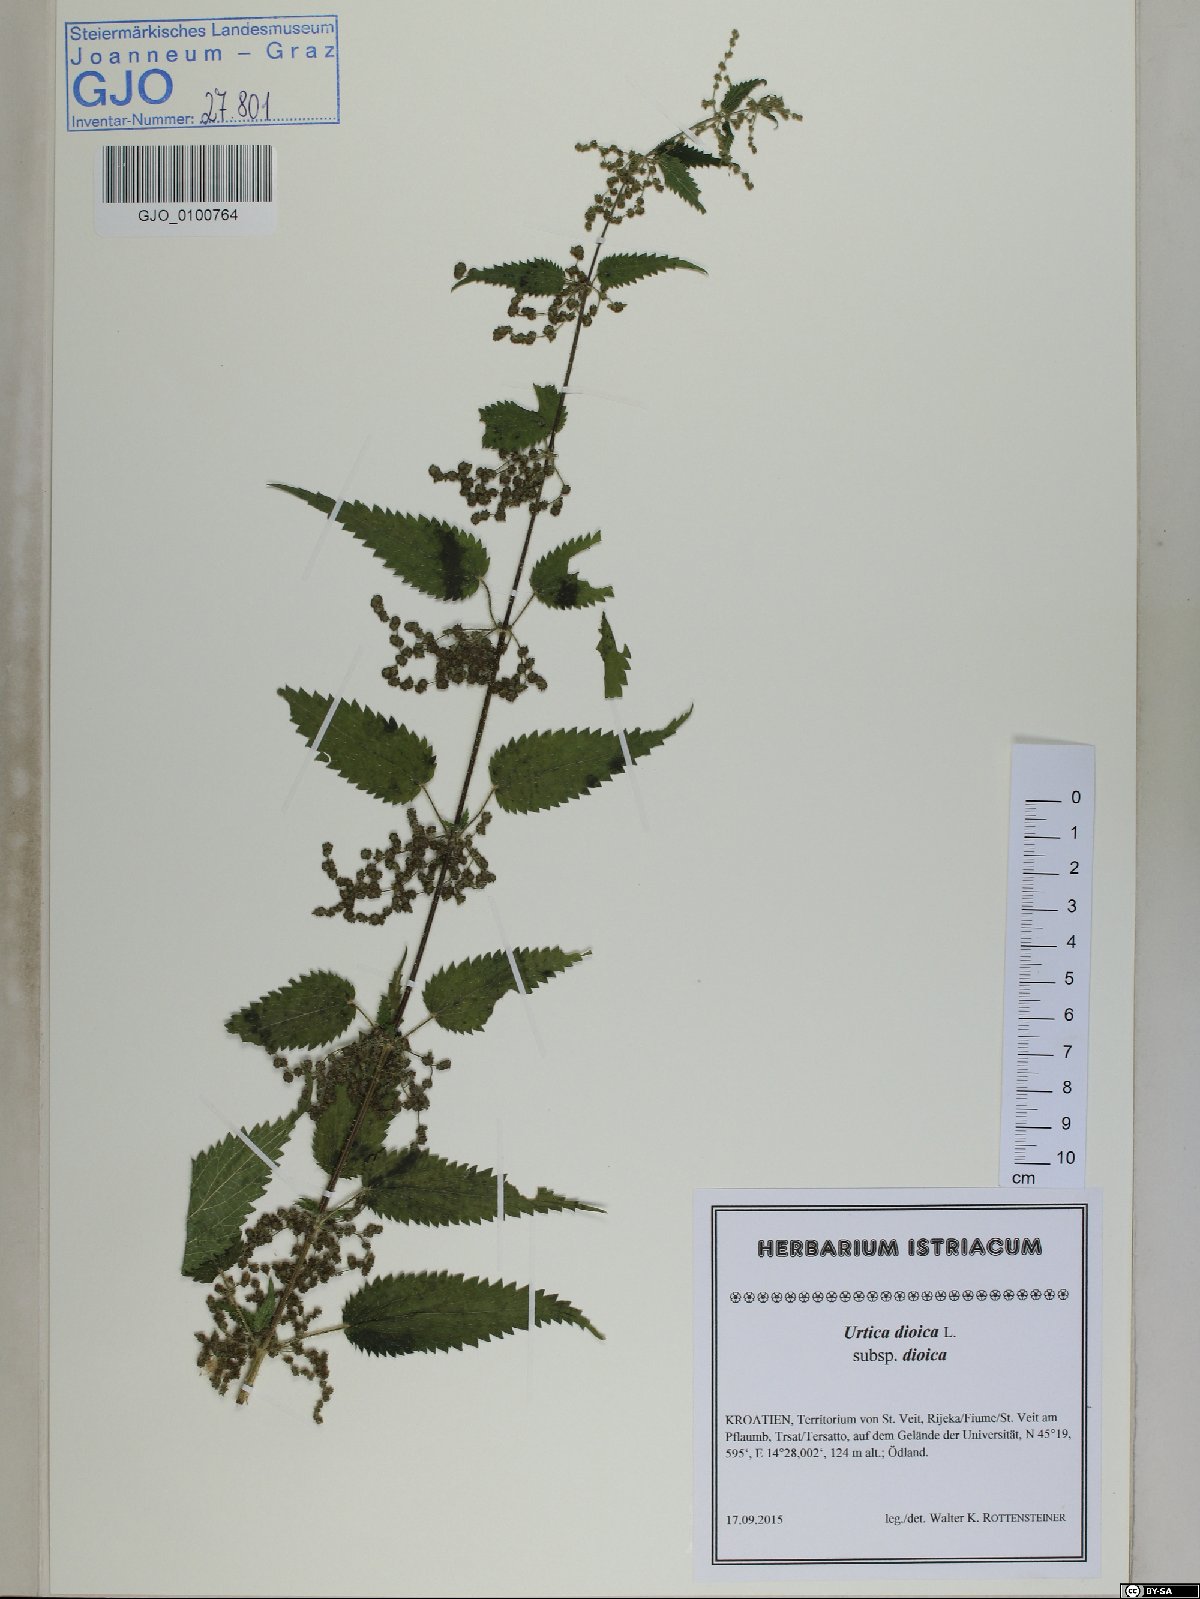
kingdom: Plantae
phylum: Tracheophyta
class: Magnoliopsida
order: Rosales
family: Urticaceae
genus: Urtica
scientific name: Urtica dioica
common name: Common nettle
